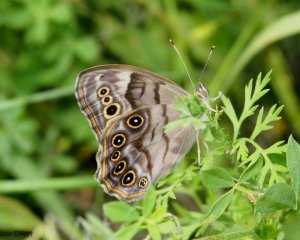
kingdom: Animalia
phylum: Arthropoda
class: Insecta
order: Lepidoptera
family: Nymphalidae
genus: Lethe
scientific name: Lethe anthedon
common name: Northern Pearly-Eye
